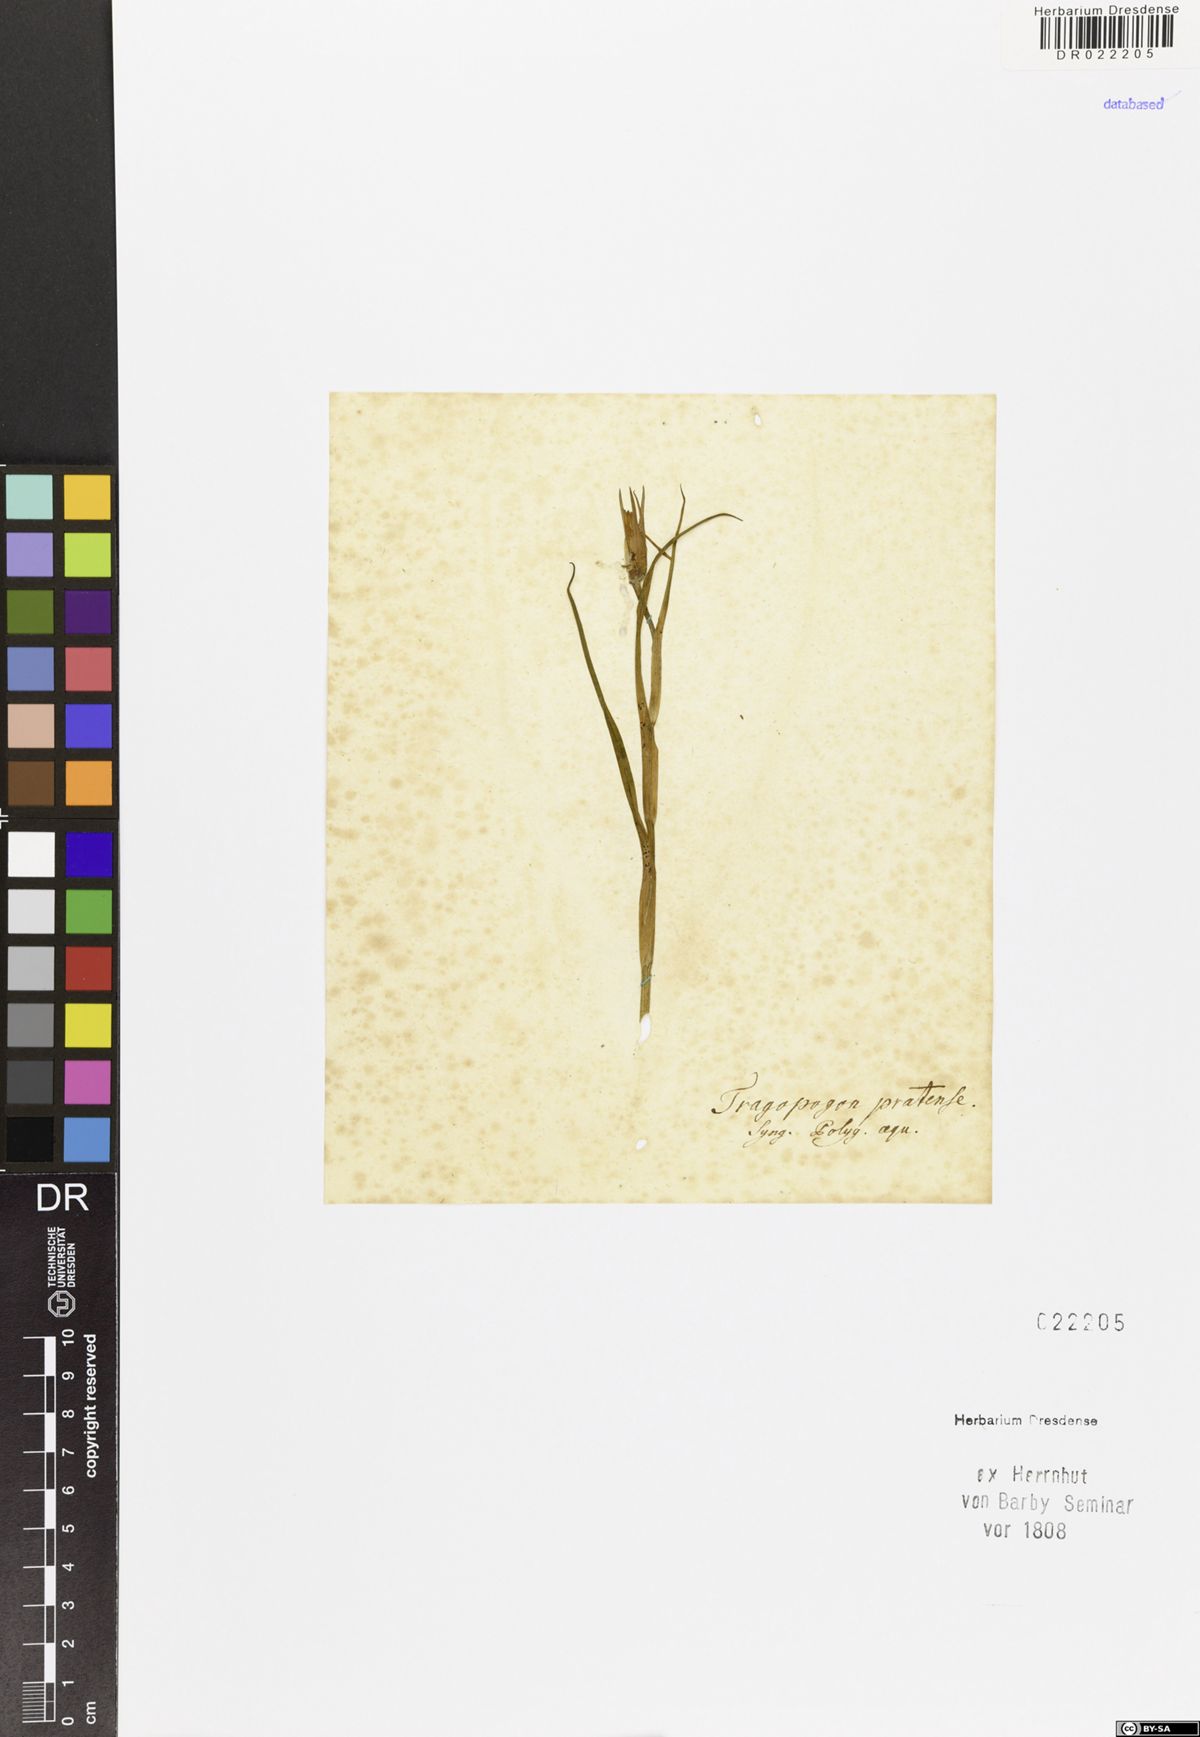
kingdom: Plantae
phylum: Tracheophyta
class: Magnoliopsida
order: Asterales
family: Asteraceae
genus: Tragopogon
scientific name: Tragopogon pratensis
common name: Goat's-beard
